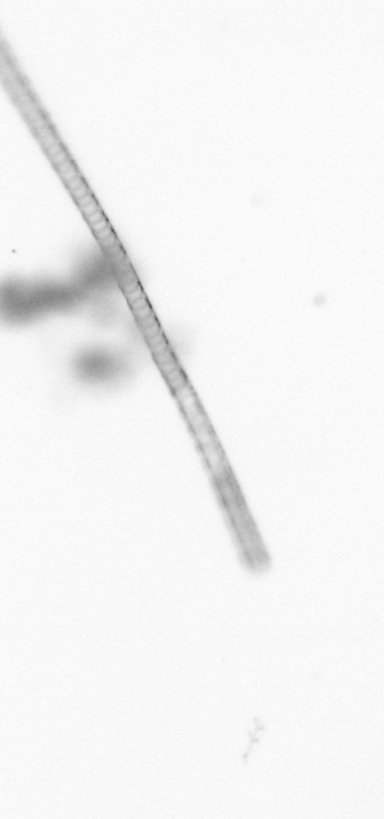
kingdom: Chromista
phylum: Ochrophyta
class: Bacillariophyceae
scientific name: Bacillariophyceae
